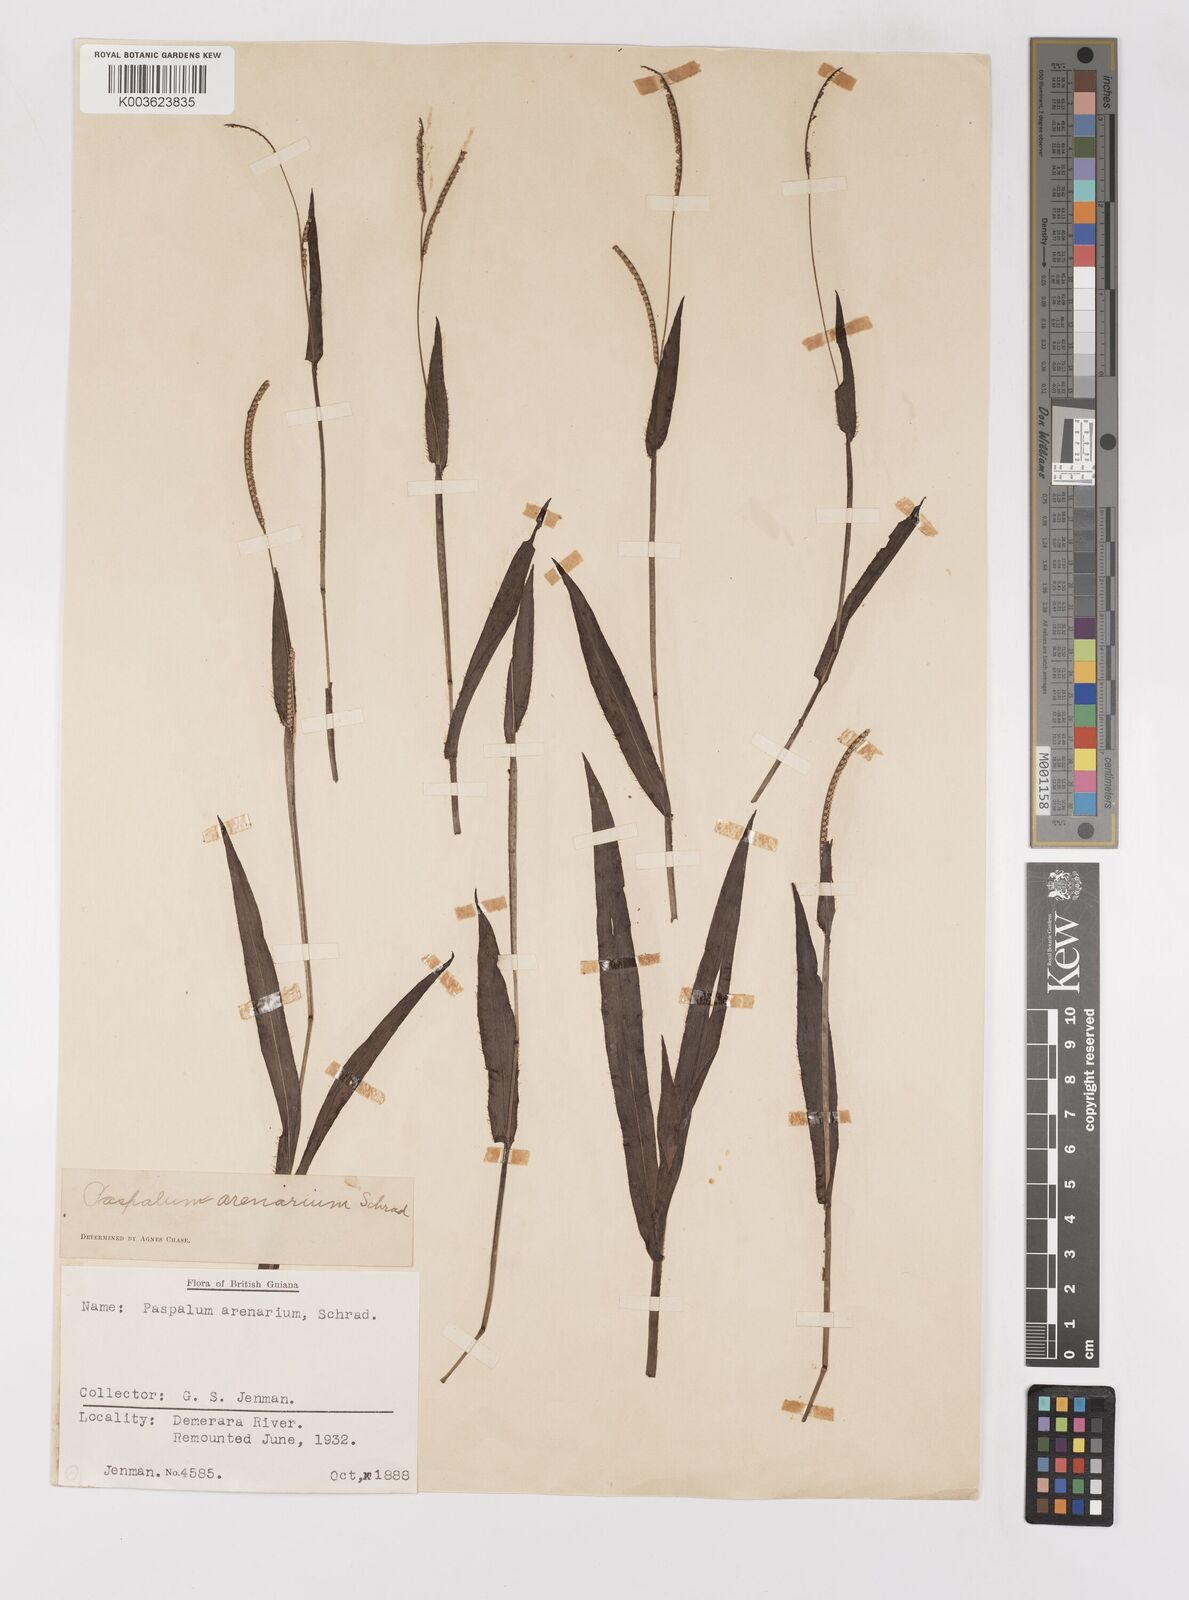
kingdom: Plantae
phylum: Tracheophyta
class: Liliopsida
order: Poales
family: Poaceae
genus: Paspalum
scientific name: Paspalum arenarium
